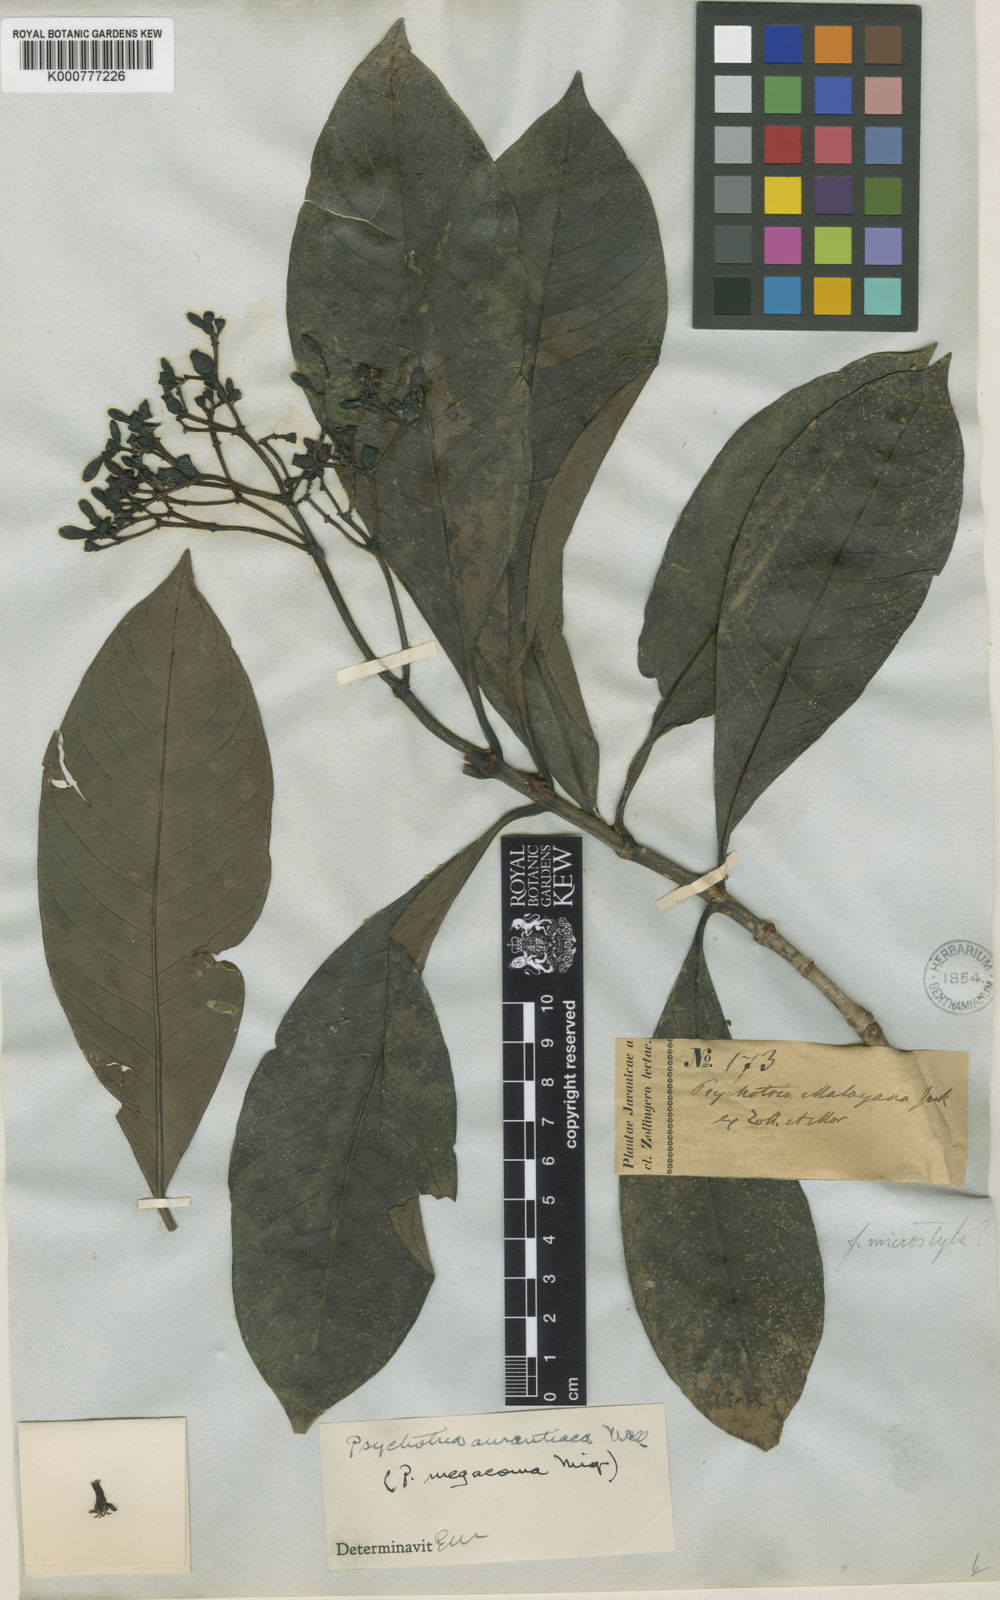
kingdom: Plantae
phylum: Tracheophyta
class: Magnoliopsida
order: Gentianales
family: Rubiaceae
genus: Psychotria
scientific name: Psychotria malayana
